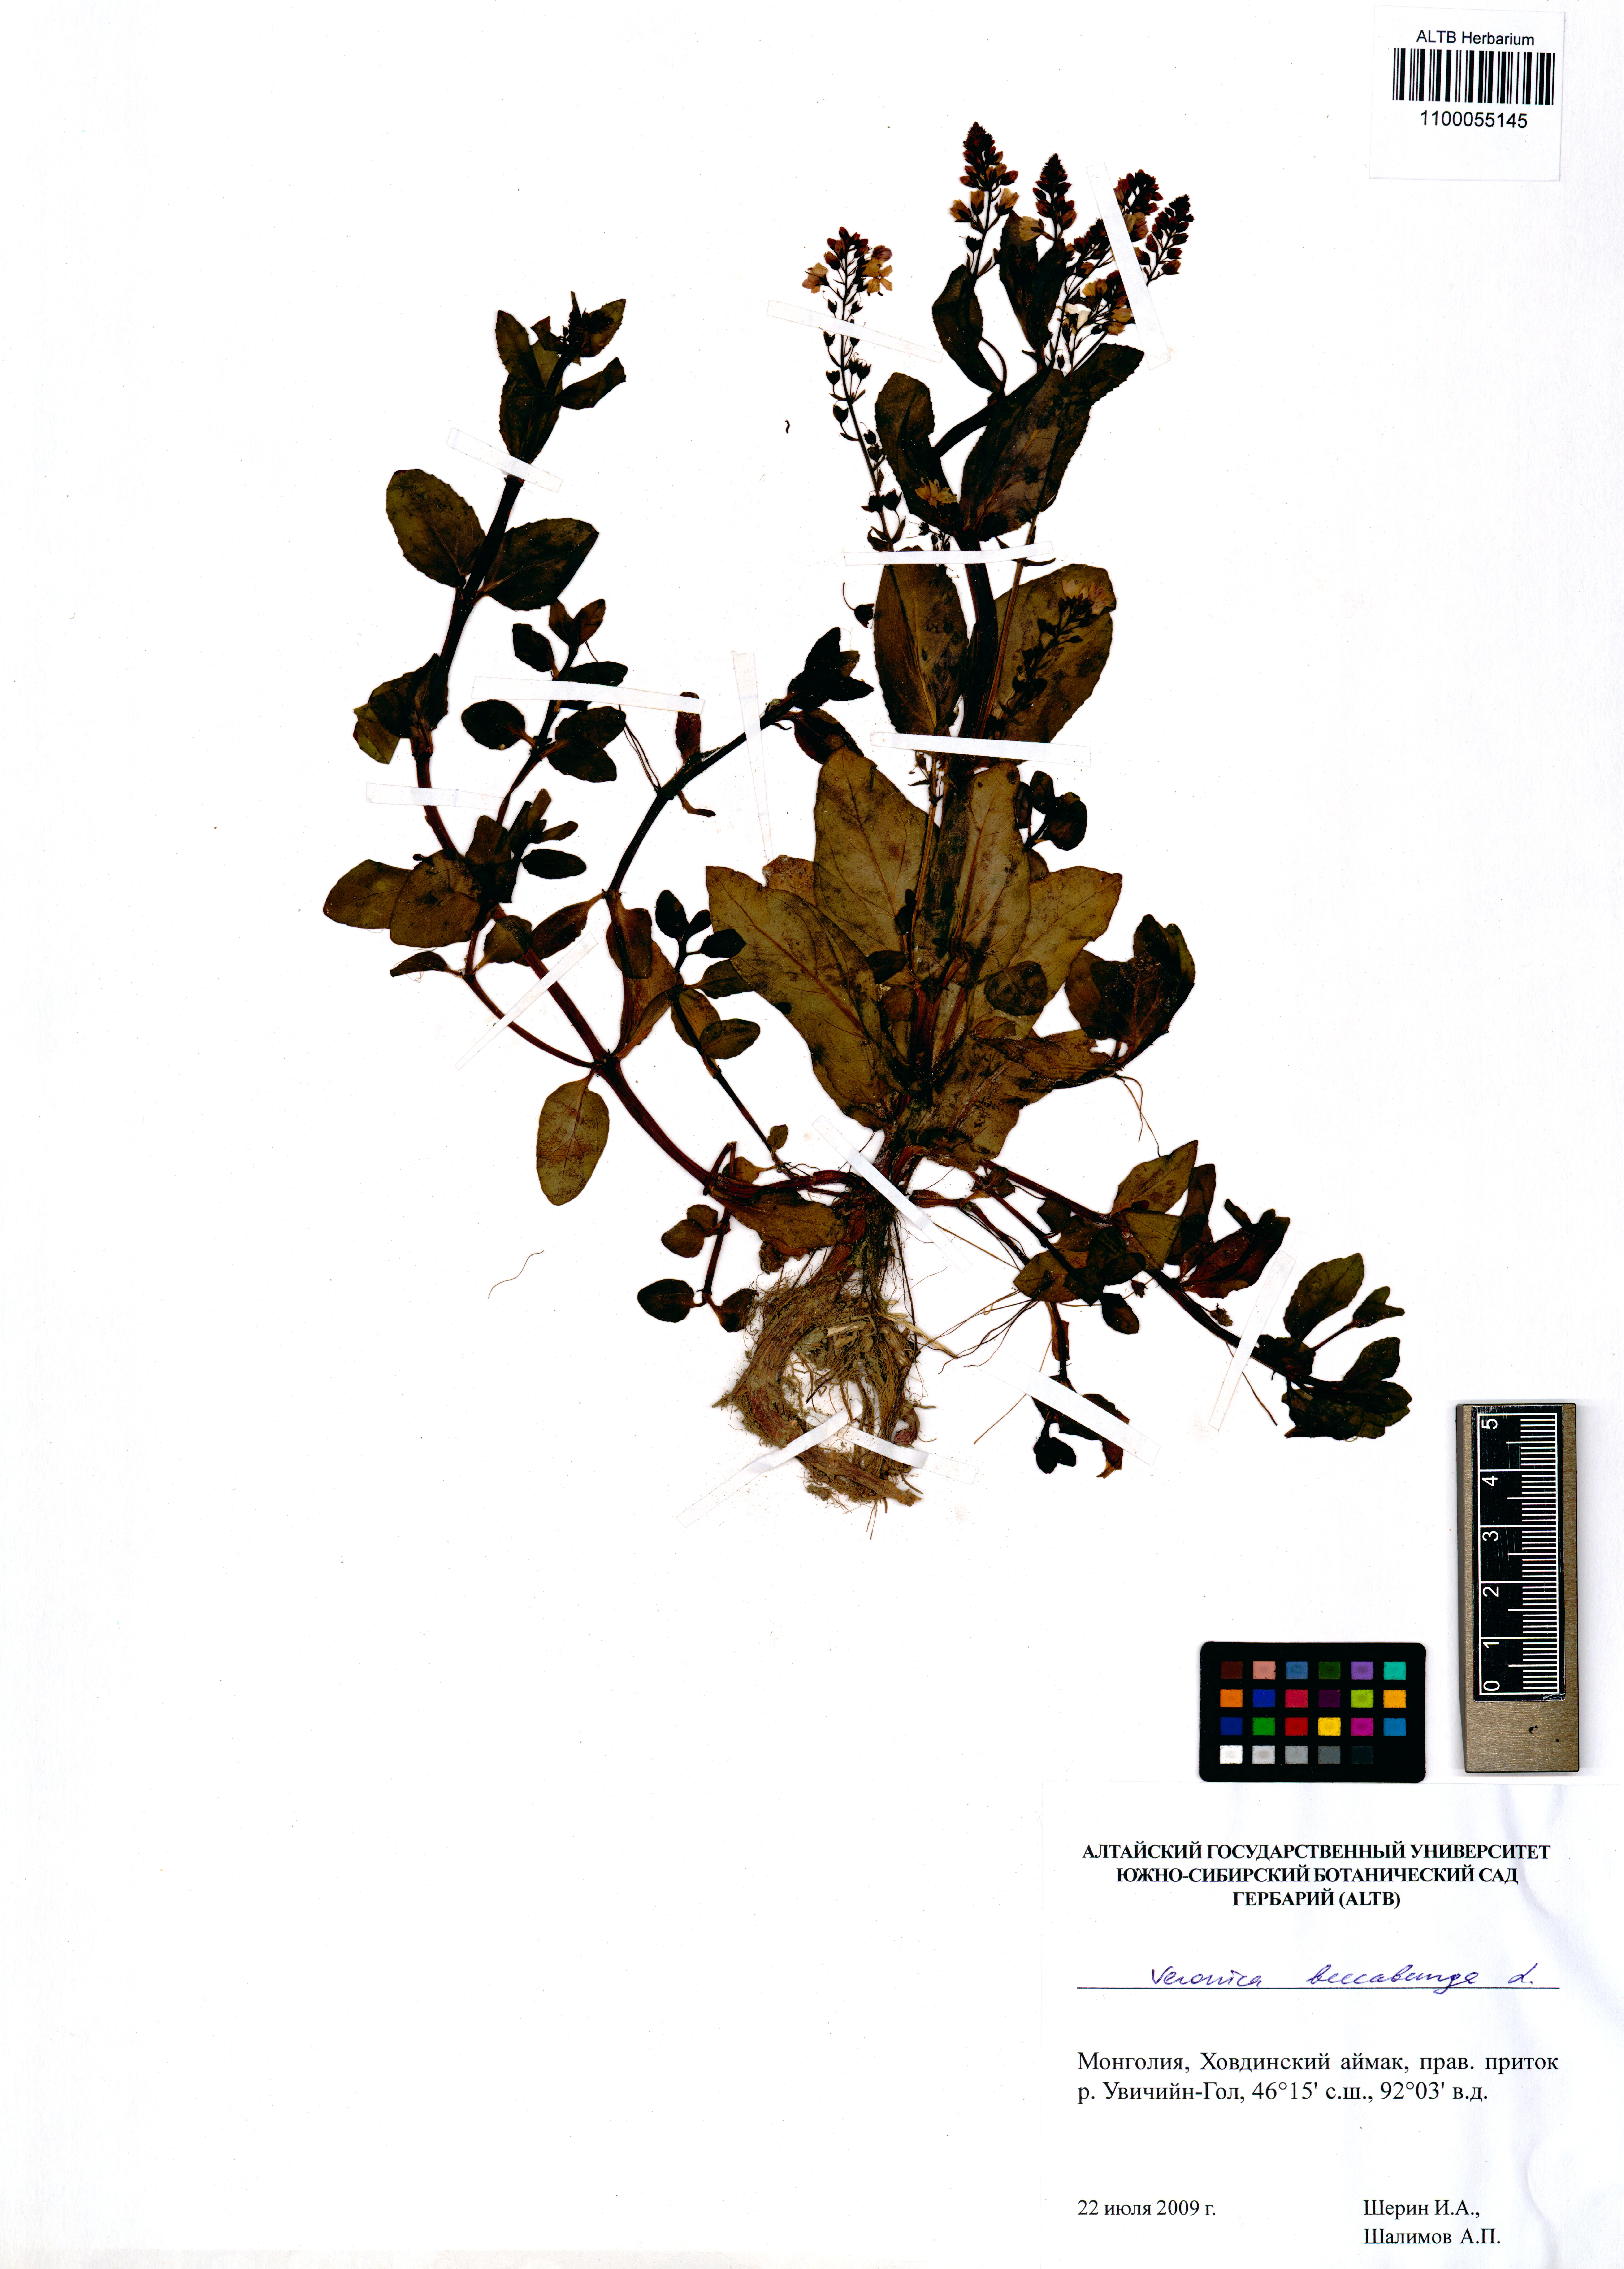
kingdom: Plantae
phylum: Tracheophyta
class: Magnoliopsida
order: Lamiales
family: Plantaginaceae
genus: Veronica
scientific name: Veronica beccabunga
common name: Brooklime
